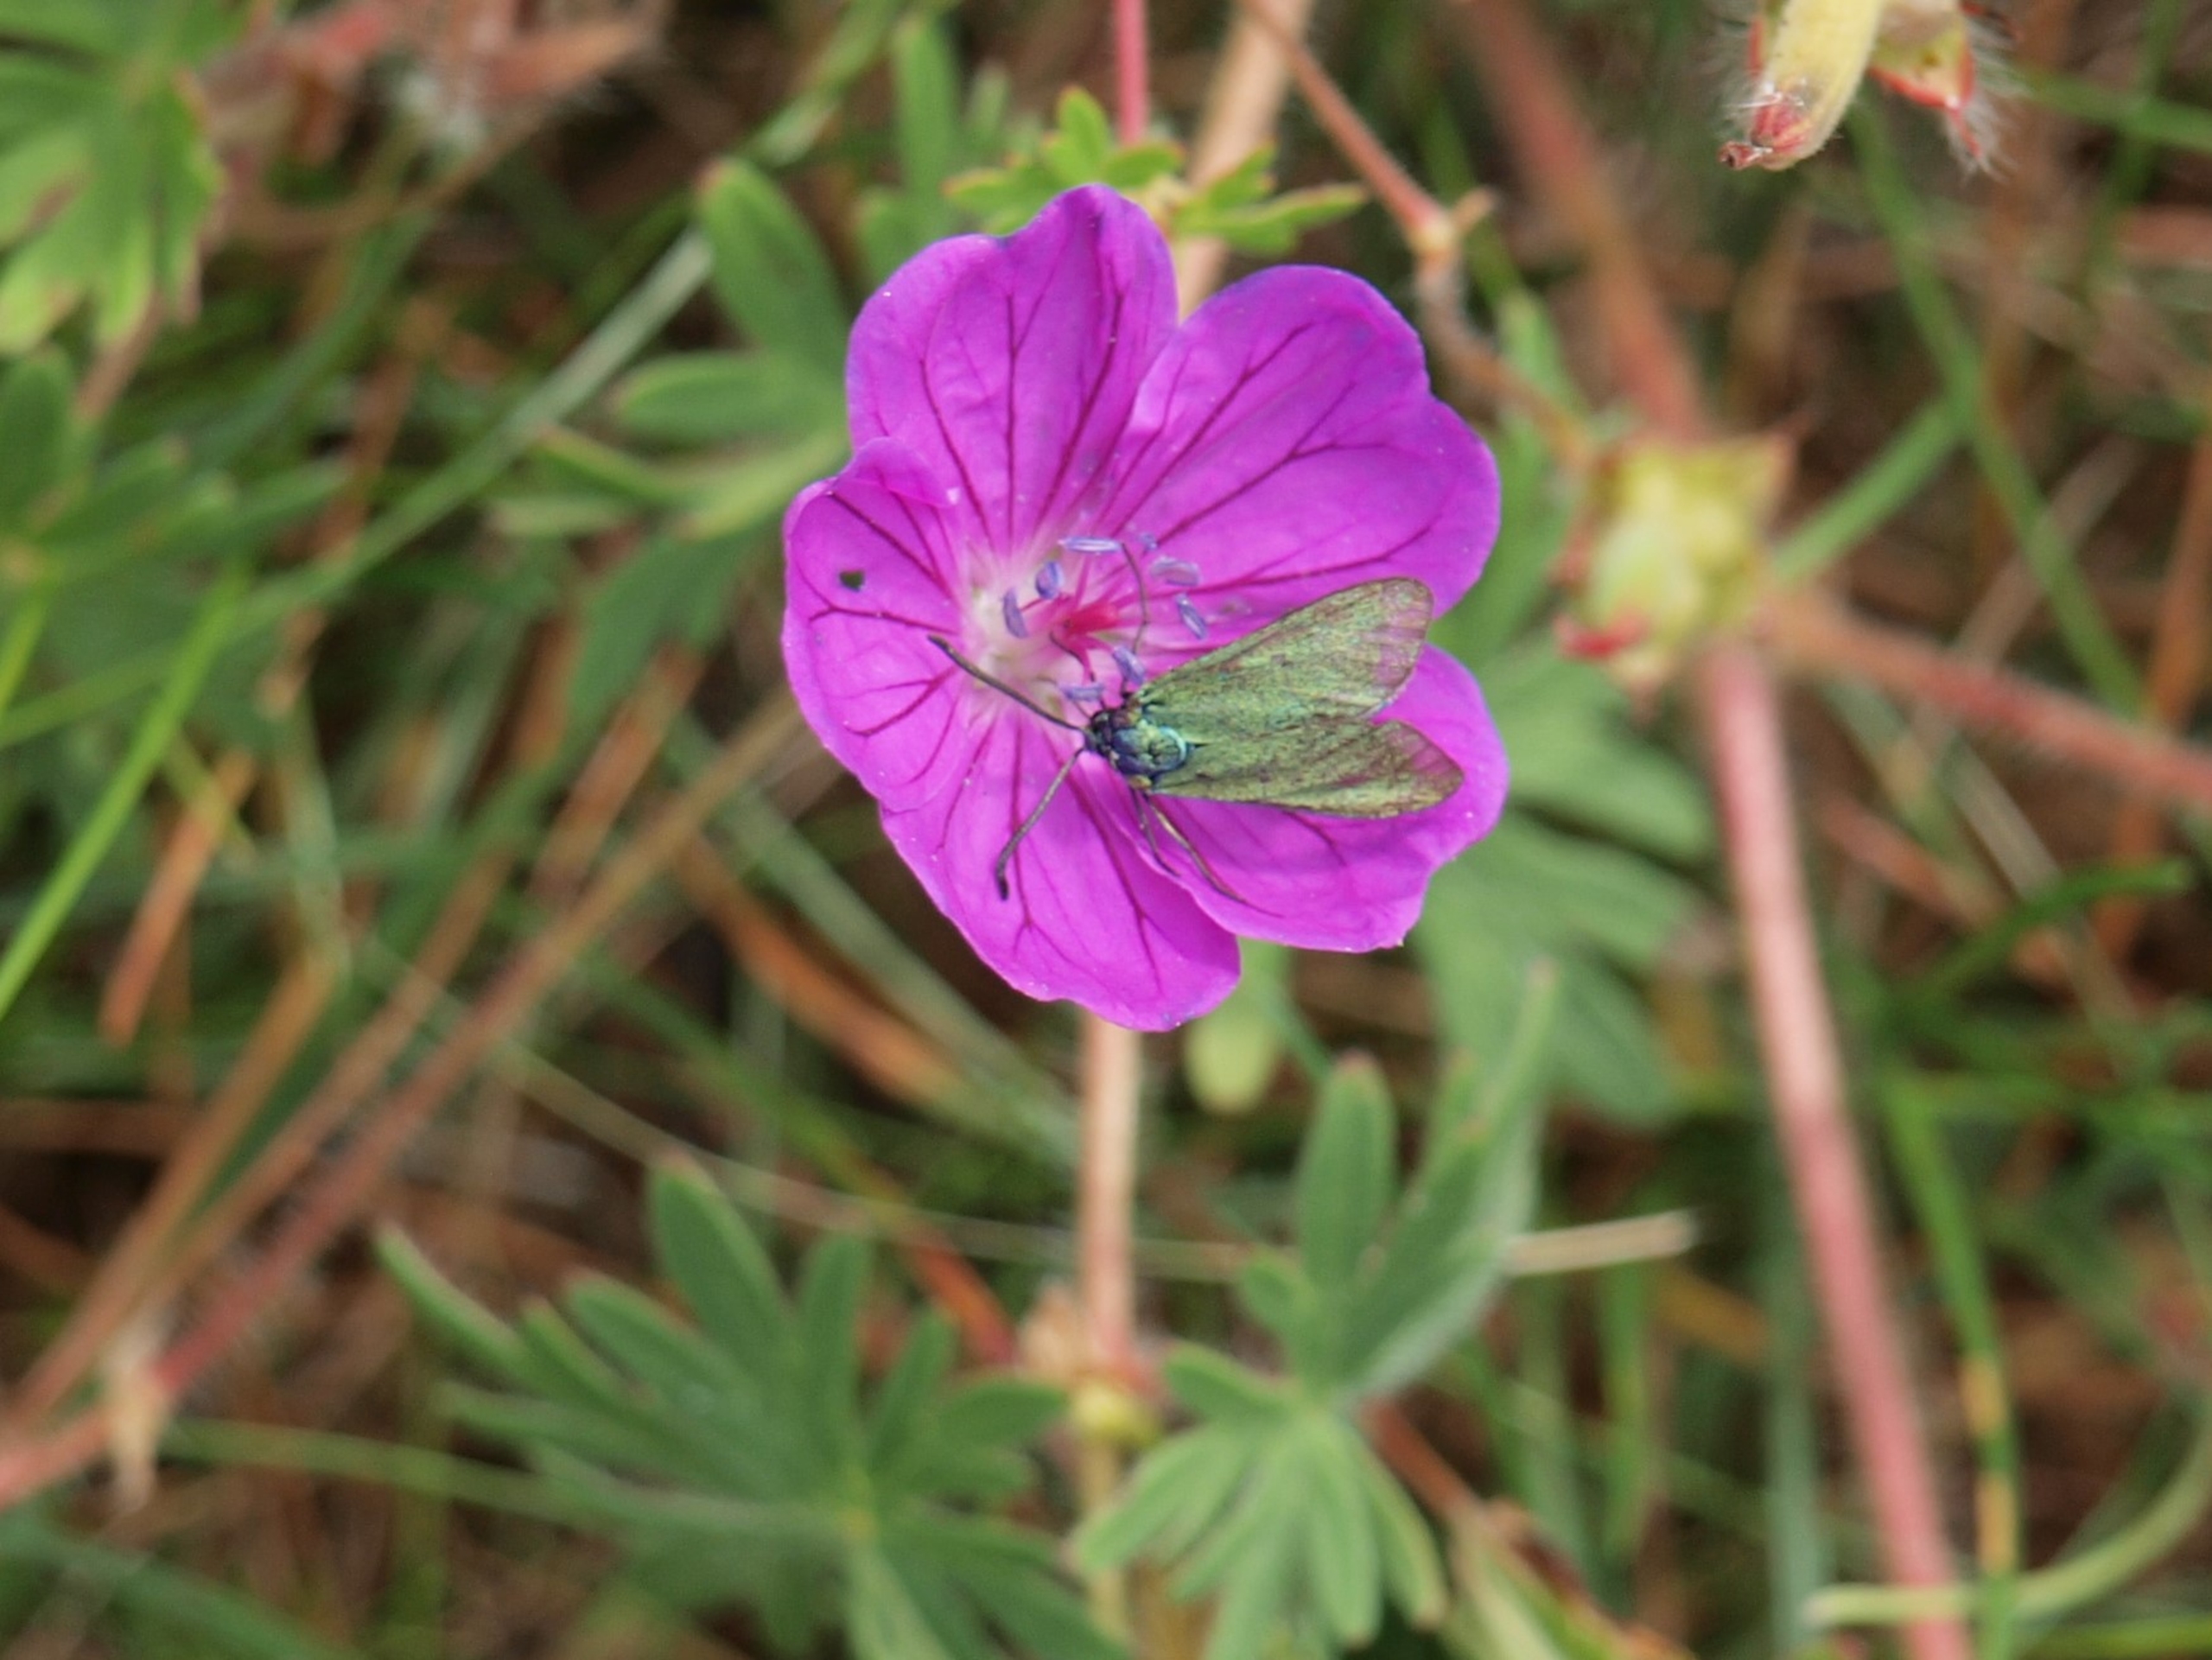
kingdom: Animalia
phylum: Arthropoda
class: Insecta
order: Lepidoptera
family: Zygaenidae
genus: Adscita
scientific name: Adscita statices
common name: Metalvinge
